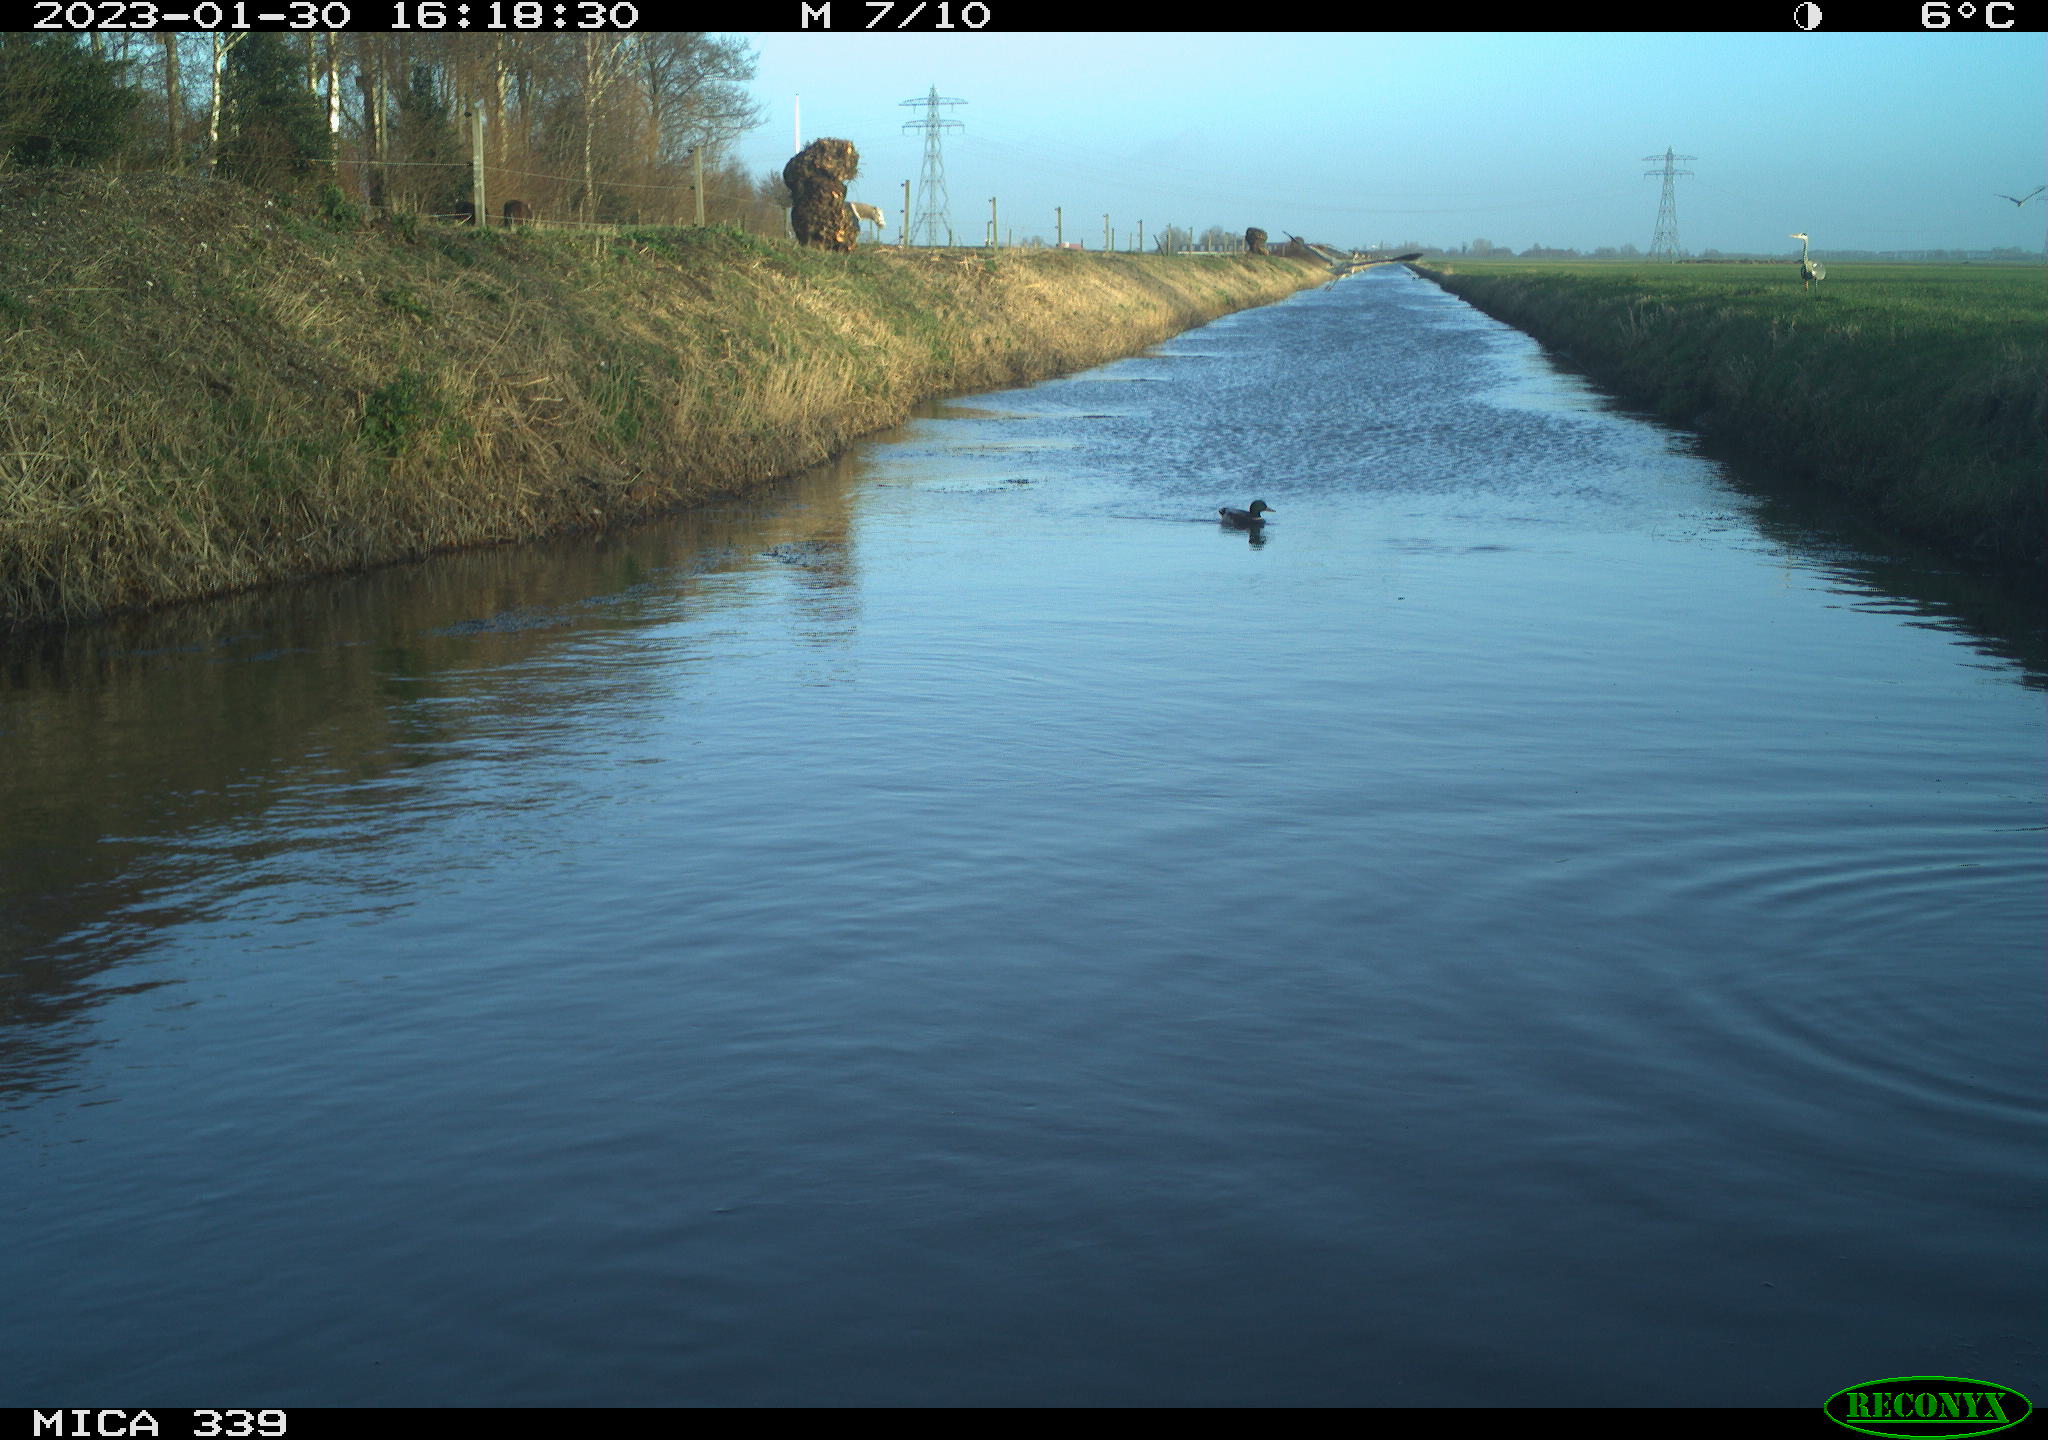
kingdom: Animalia
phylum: Chordata
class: Aves
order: Pelecaniformes
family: Ardeidae
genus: Ardea
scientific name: Ardea cinerea
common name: Grey heron
